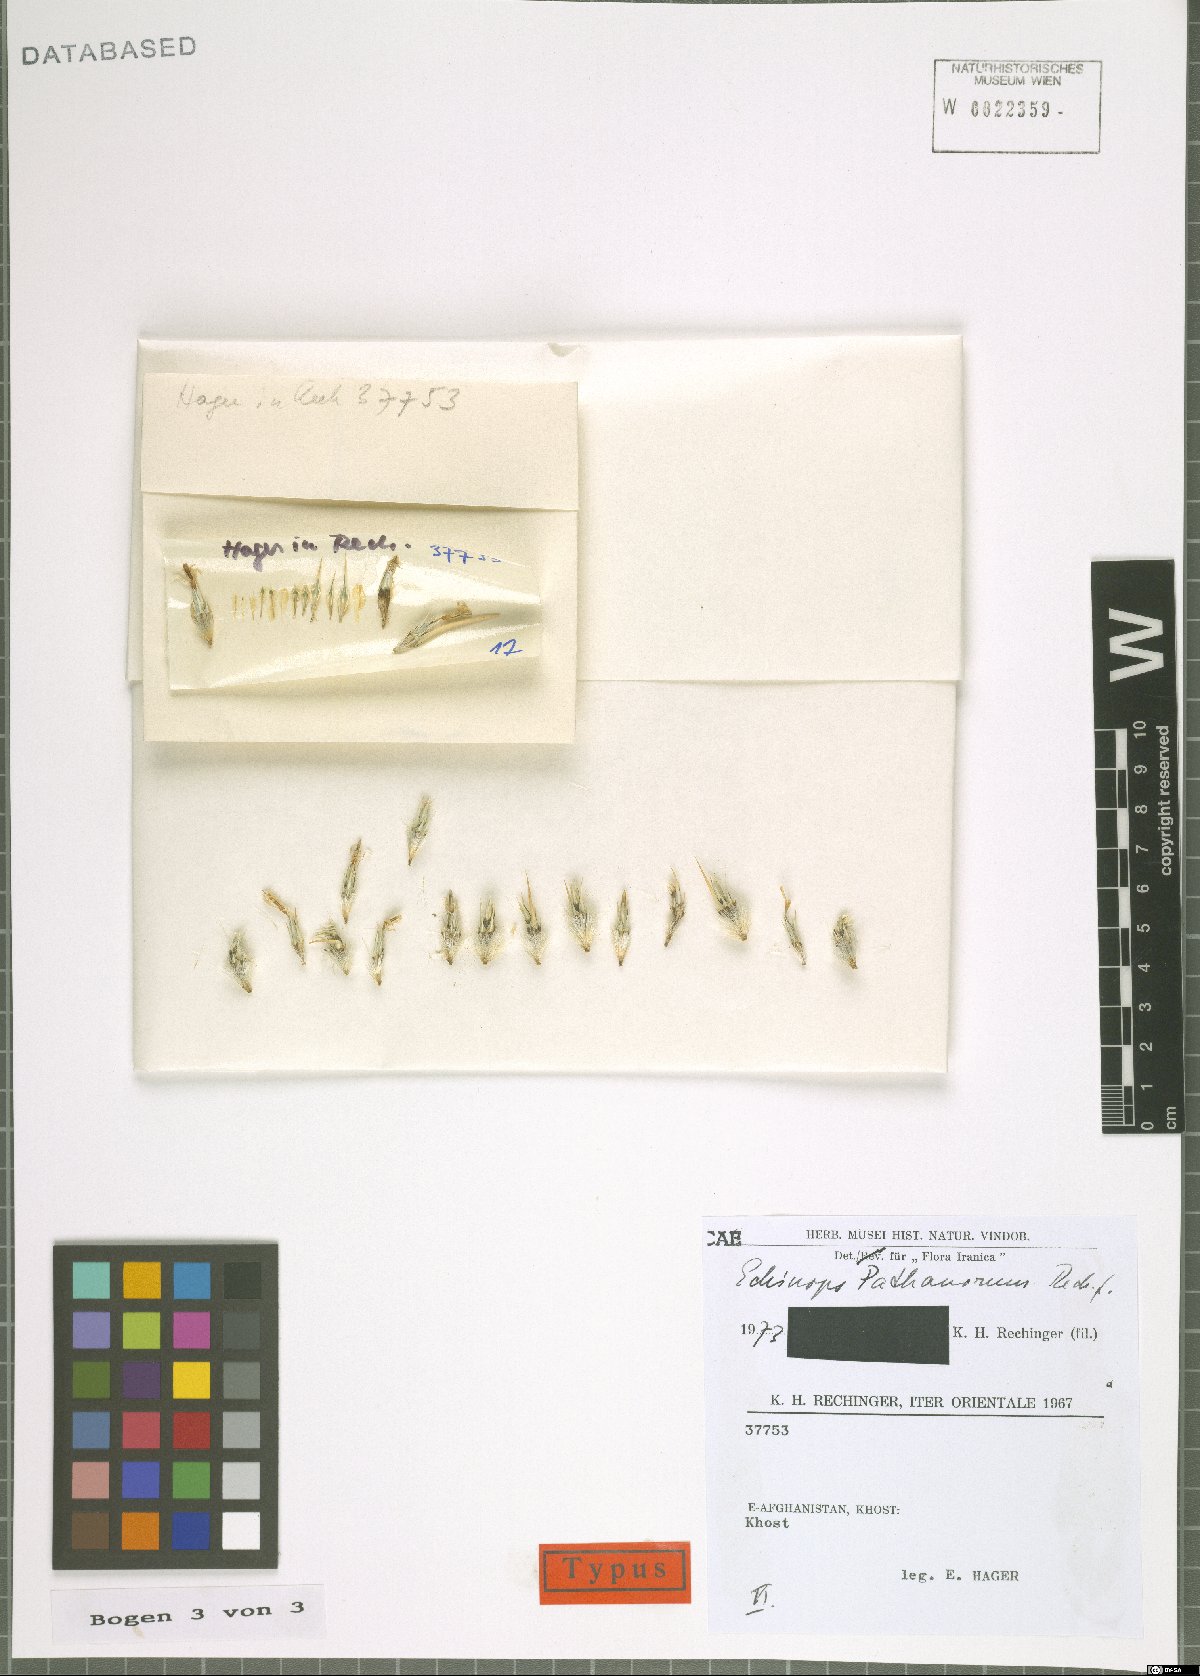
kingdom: Plantae
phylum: Tracheophyta
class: Magnoliopsida
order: Asterales
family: Asteraceae
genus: Echinops
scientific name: Echinops pathanorum
